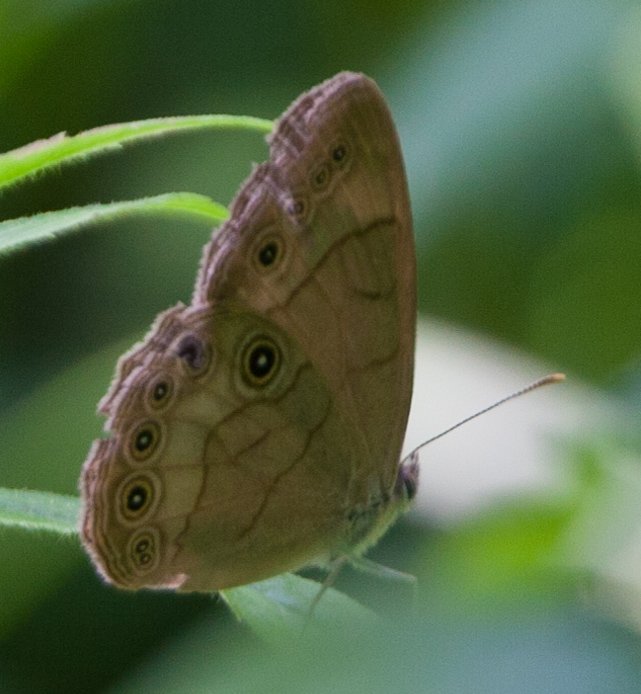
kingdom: Animalia
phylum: Arthropoda
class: Insecta
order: Lepidoptera
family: Nymphalidae
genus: Lethe
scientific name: Lethe eurydice
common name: Appalachian Eyed Brown
